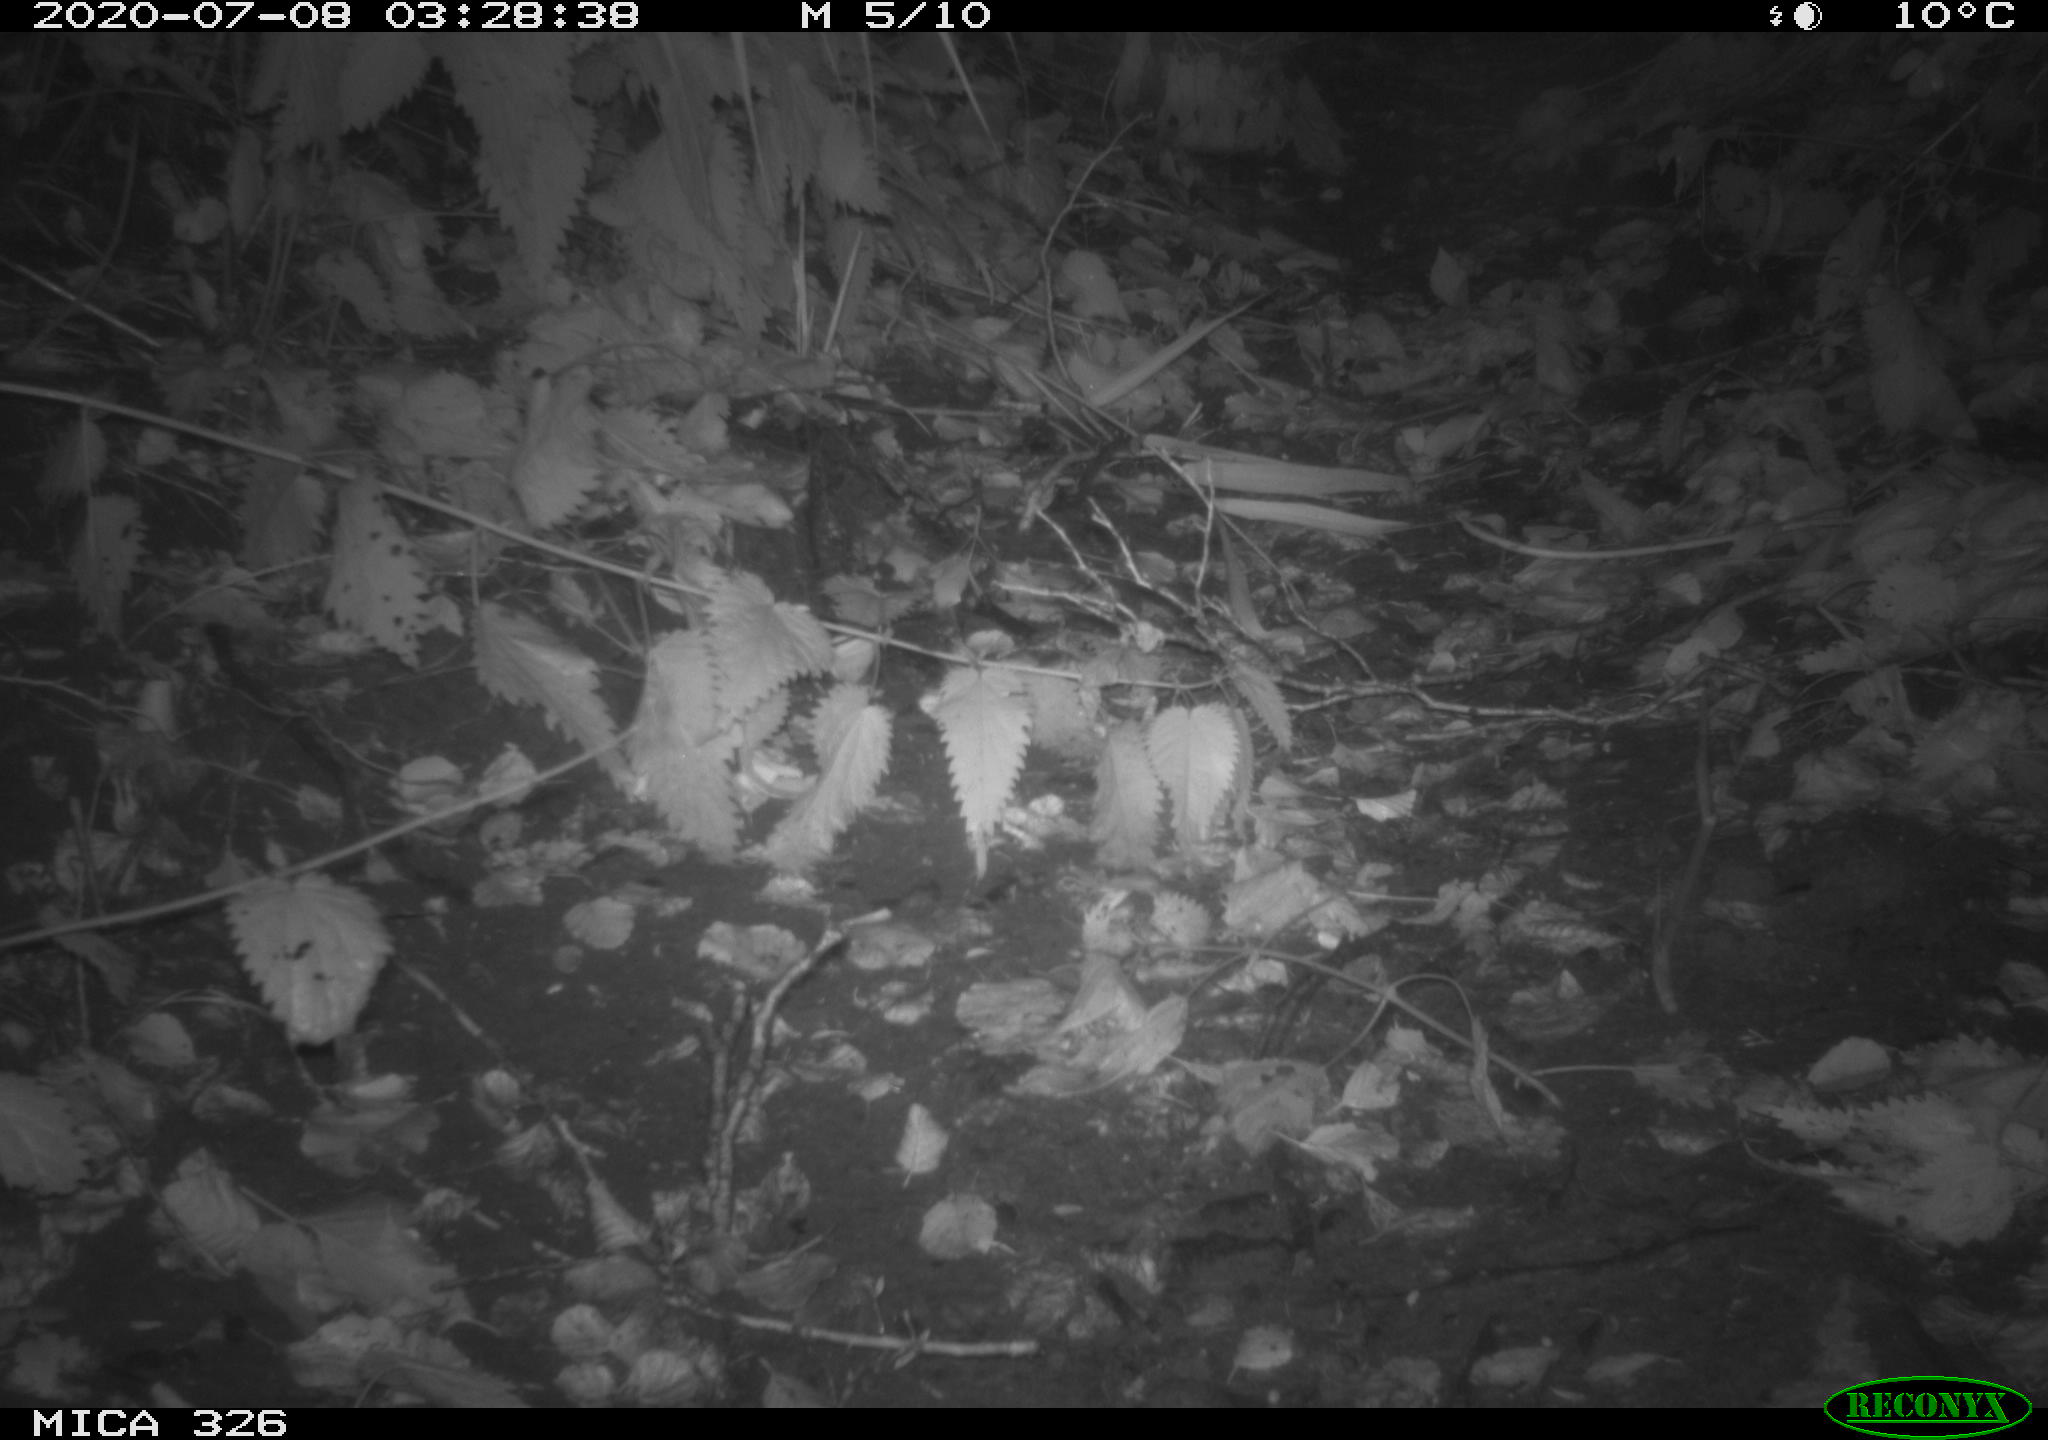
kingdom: Animalia
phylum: Chordata
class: Mammalia
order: Rodentia
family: Muridae
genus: Rattus
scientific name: Rattus norvegicus
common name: Brown rat
